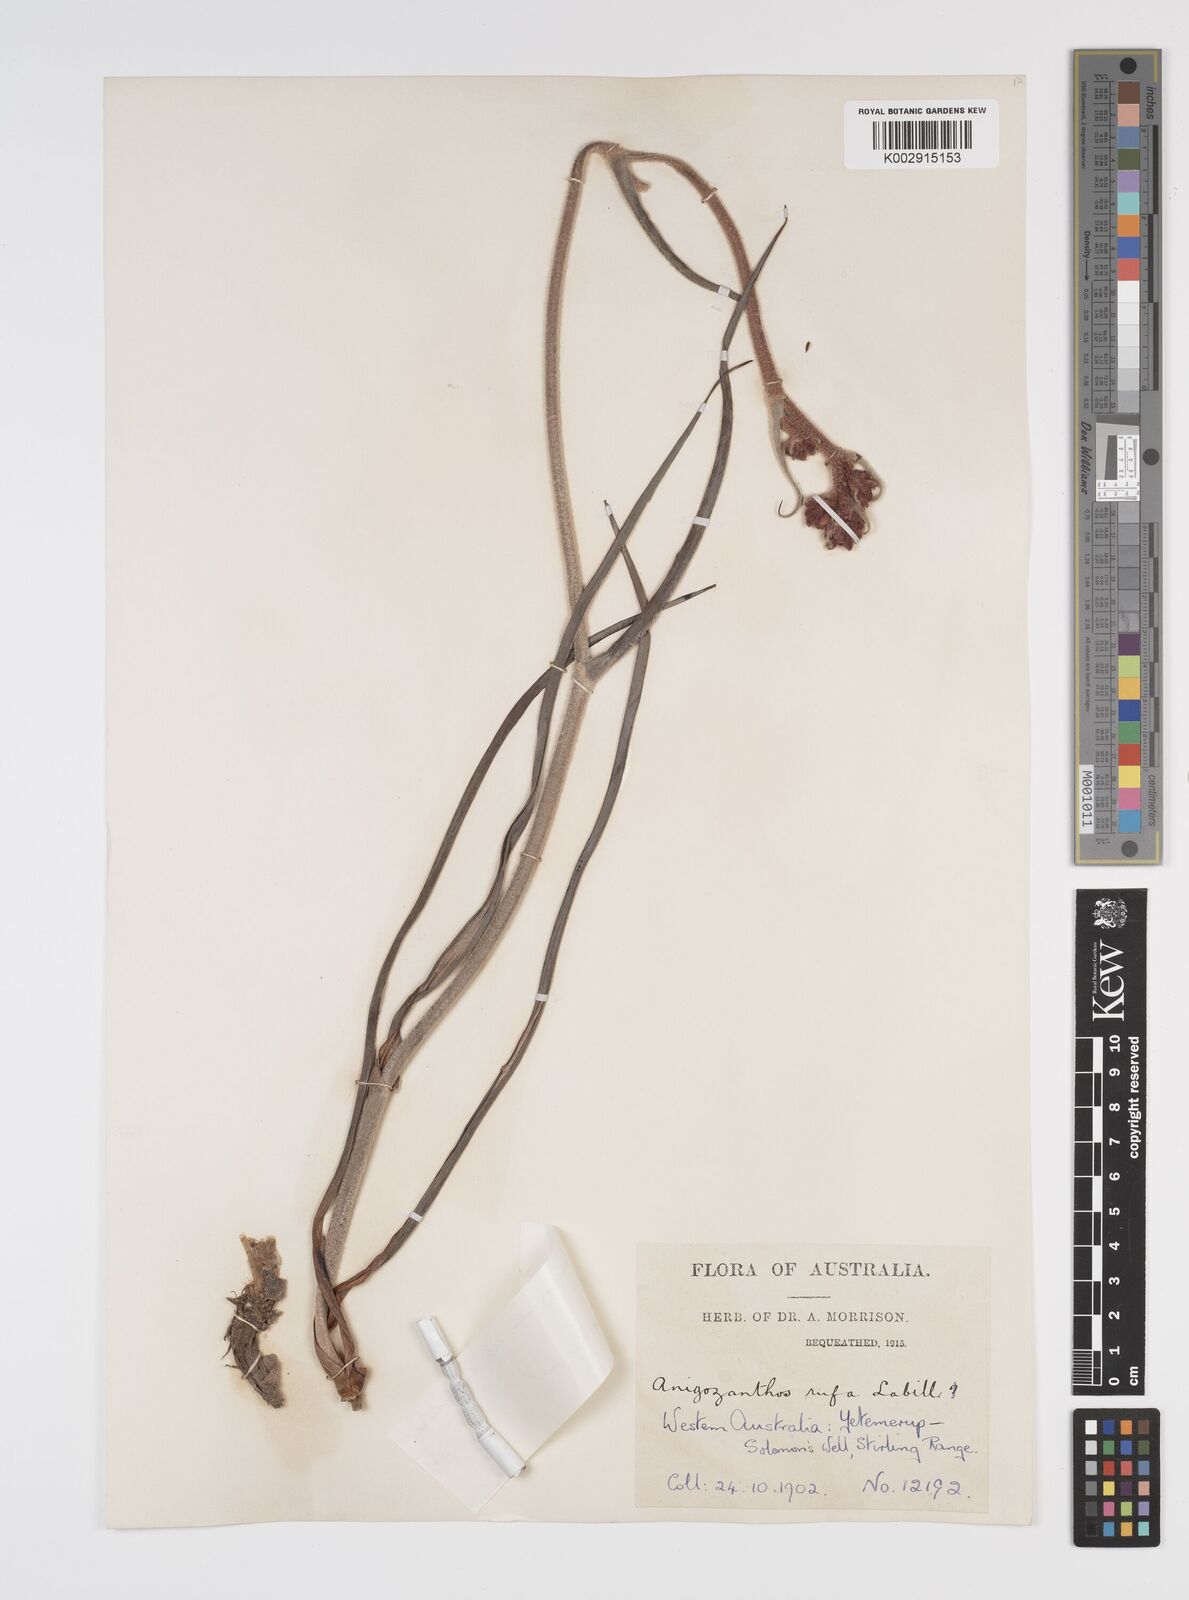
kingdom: Plantae
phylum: Tracheophyta
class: Liliopsida
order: Commelinales
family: Haemodoraceae
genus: Anigozanthos
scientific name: Anigozanthos rufus
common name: Red kangaroo-paw
